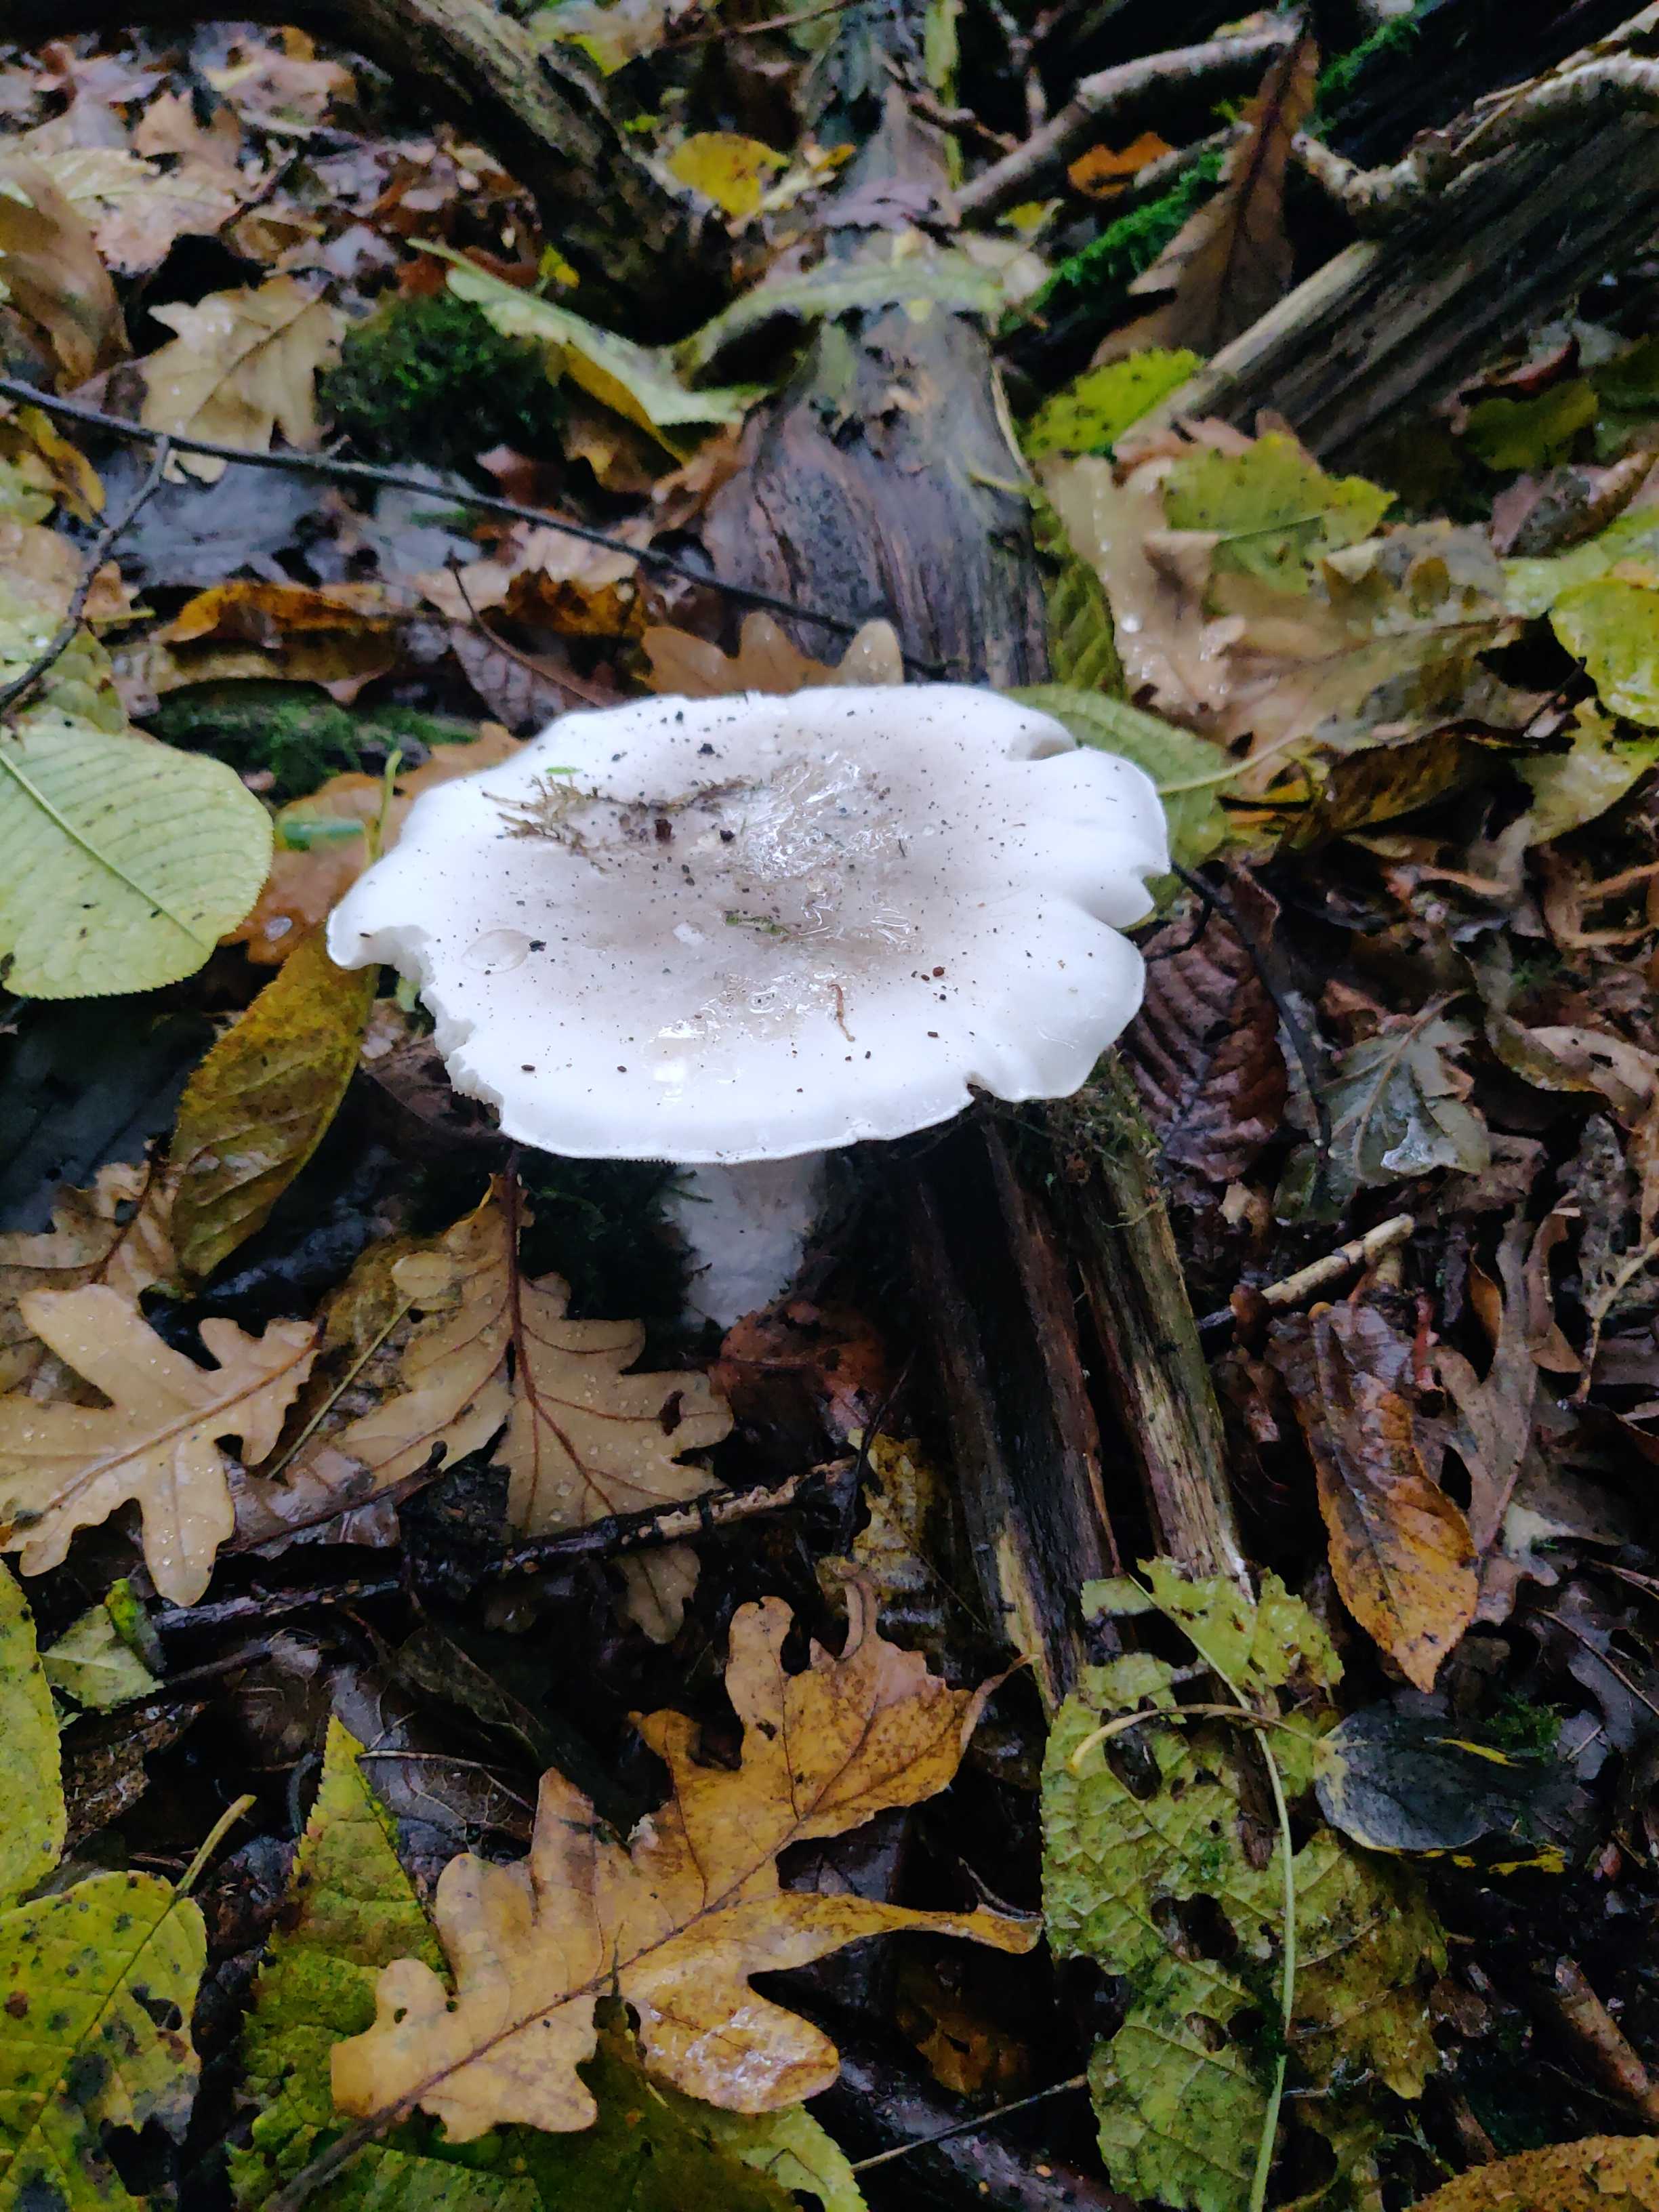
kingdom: Fungi
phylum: Basidiomycota
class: Agaricomycetes
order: Agaricales
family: Tricholomataceae
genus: Clitocybe
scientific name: Clitocybe nebularis
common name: tåge-tragthat
